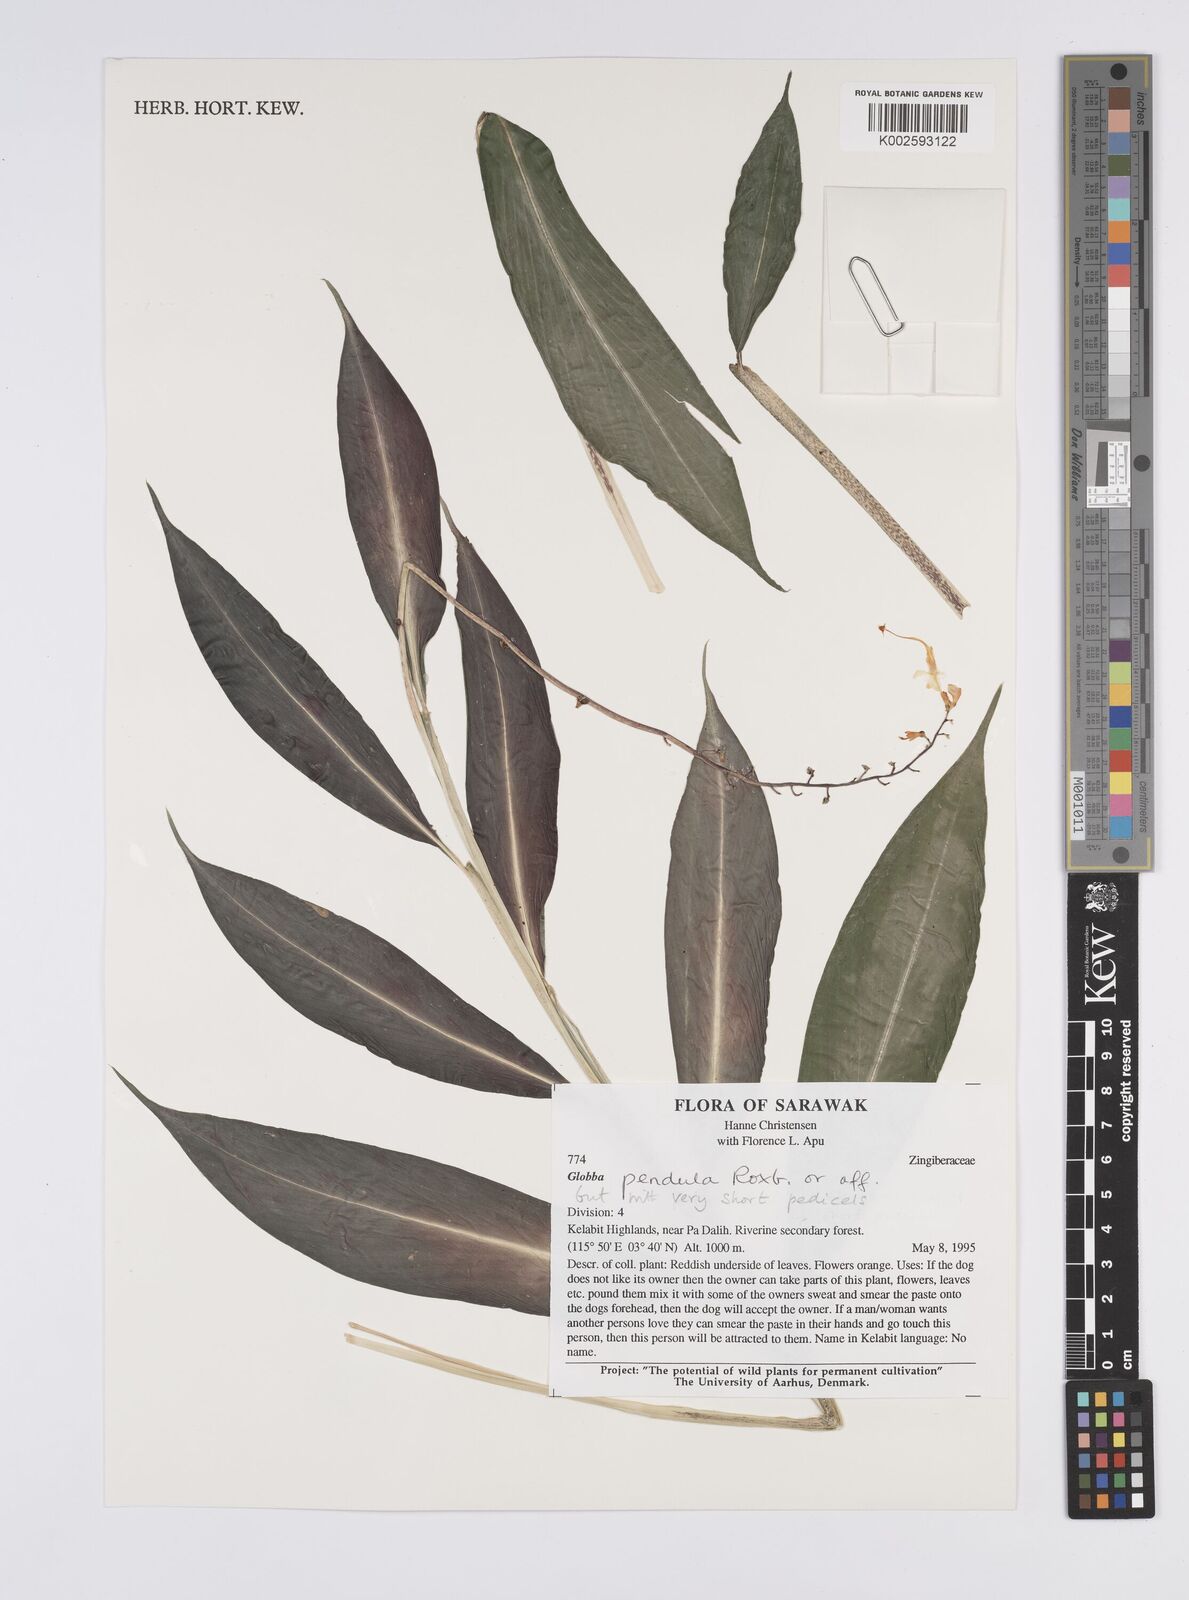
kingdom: Plantae
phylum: Tracheophyta
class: Liliopsida
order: Zingiberales
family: Zingiberaceae
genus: Globba
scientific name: Globba pendula
